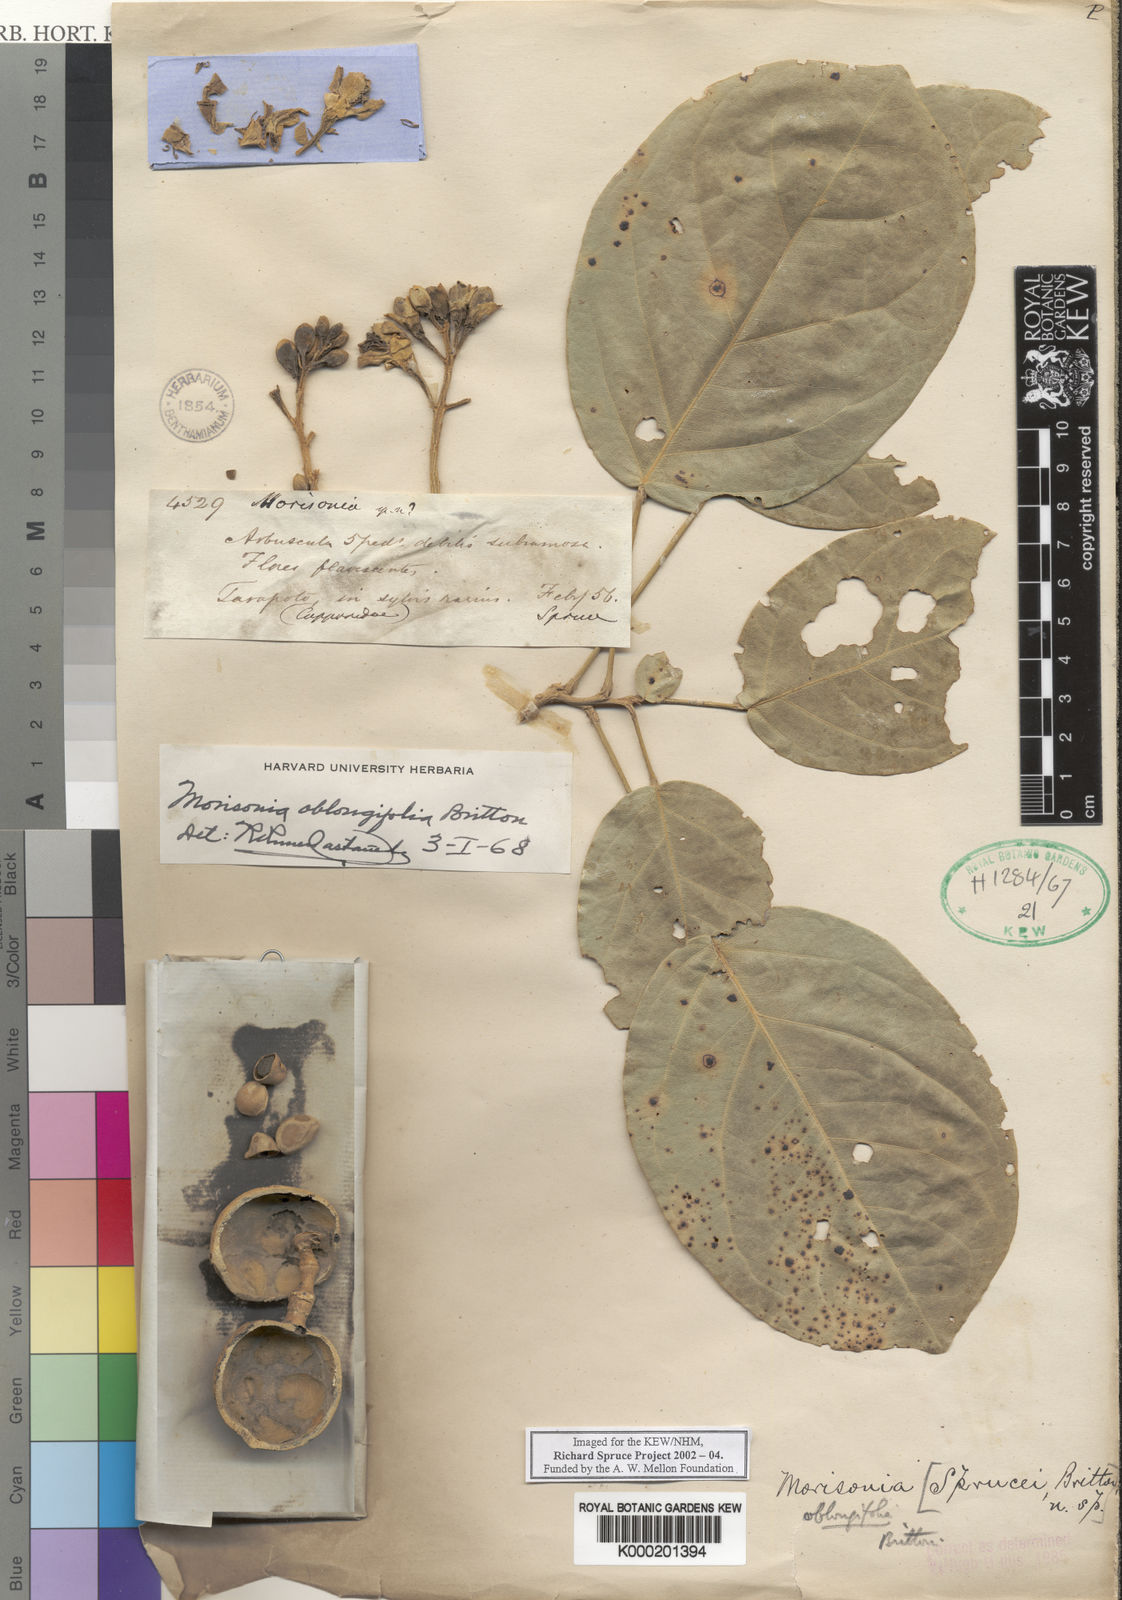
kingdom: Plantae
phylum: Tracheophyta
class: Magnoliopsida
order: Brassicales
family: Capparaceae
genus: Morisonia
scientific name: Morisonia oblongifolia
